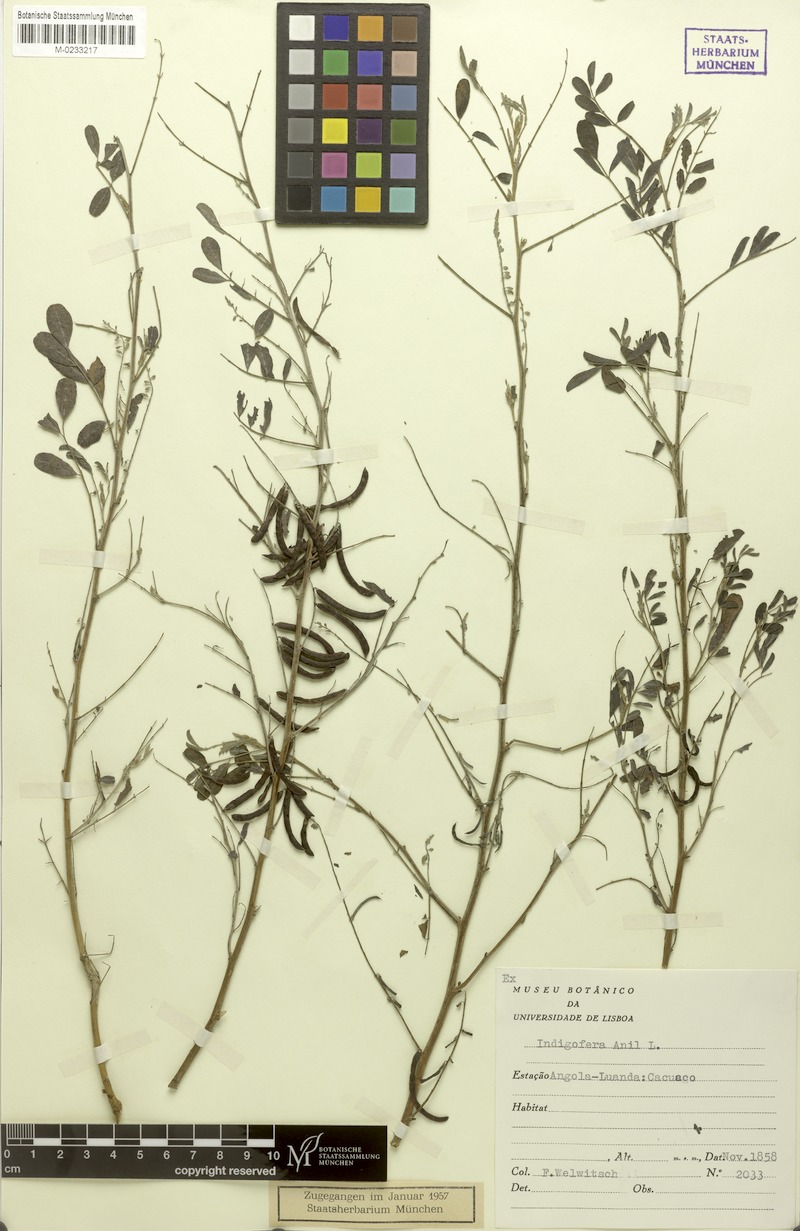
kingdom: Plantae
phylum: Tracheophyta
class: Magnoliopsida
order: Fabales
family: Fabaceae
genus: Indigofera
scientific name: Indigofera tinctoria
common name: True indigo
